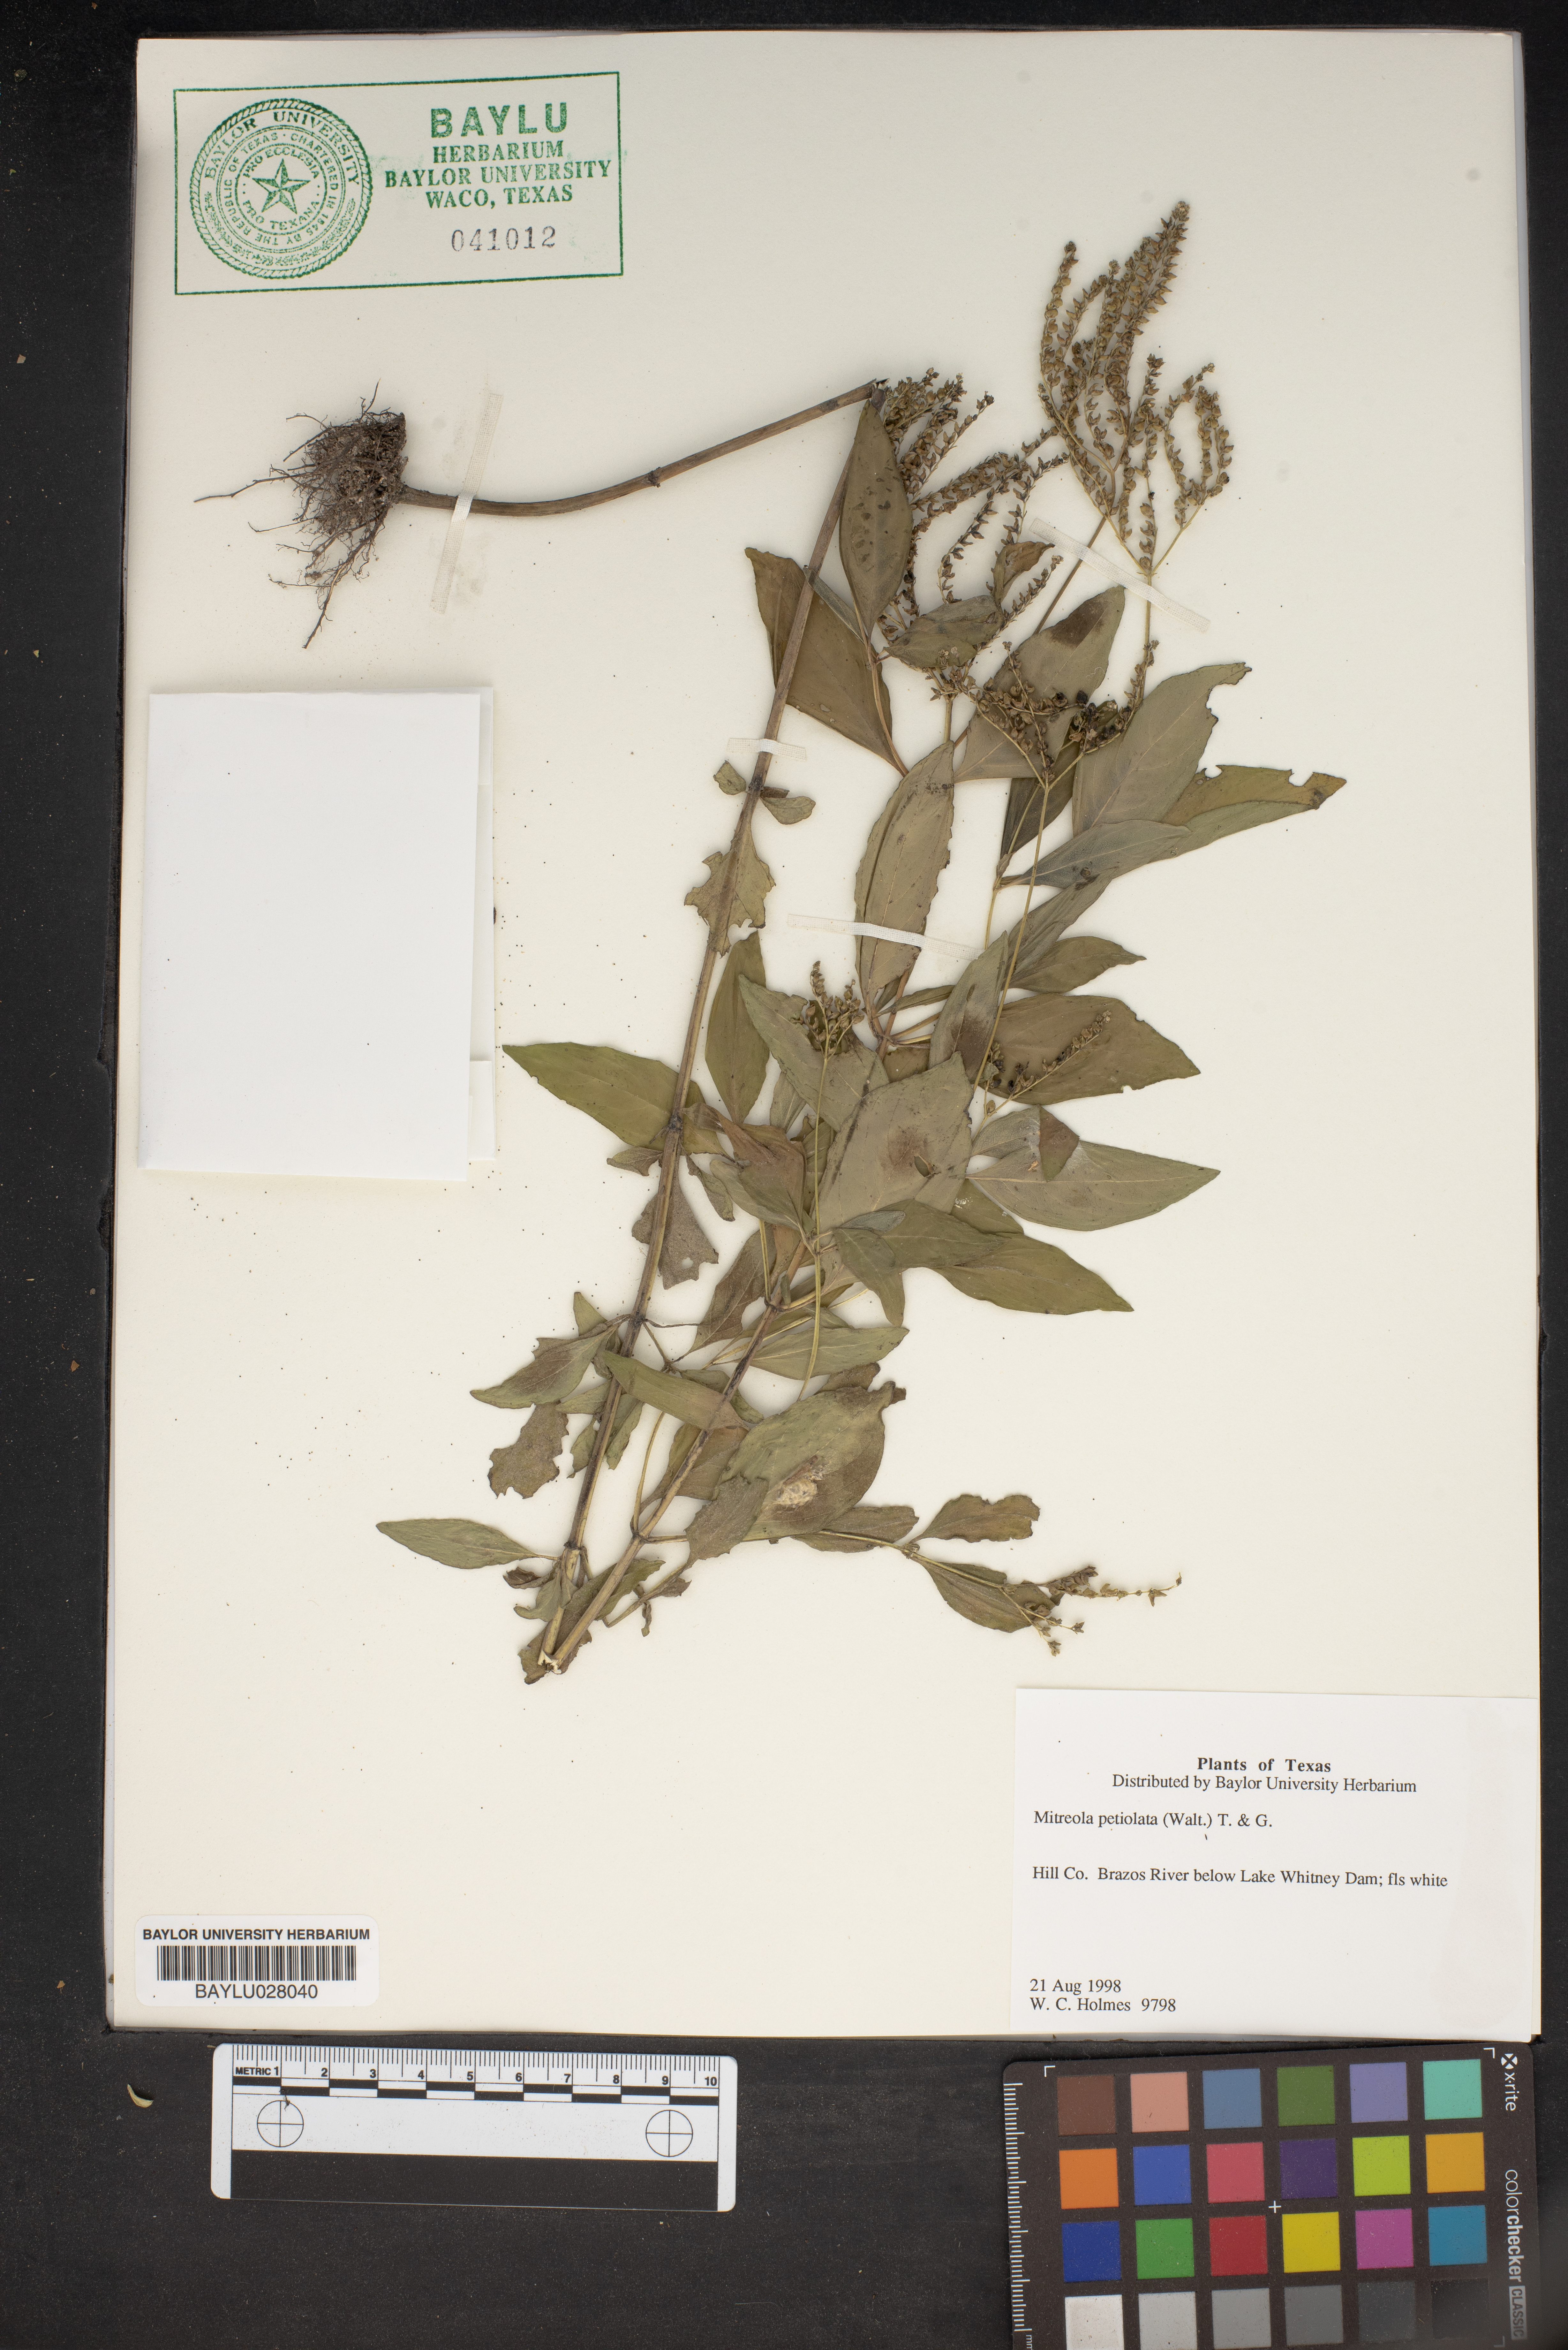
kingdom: Plantae
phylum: Tracheophyta
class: Magnoliopsida
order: Gentianales
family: Loganiaceae
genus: Mitreola
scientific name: Mitreola petiolata
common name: Lax hornpod
